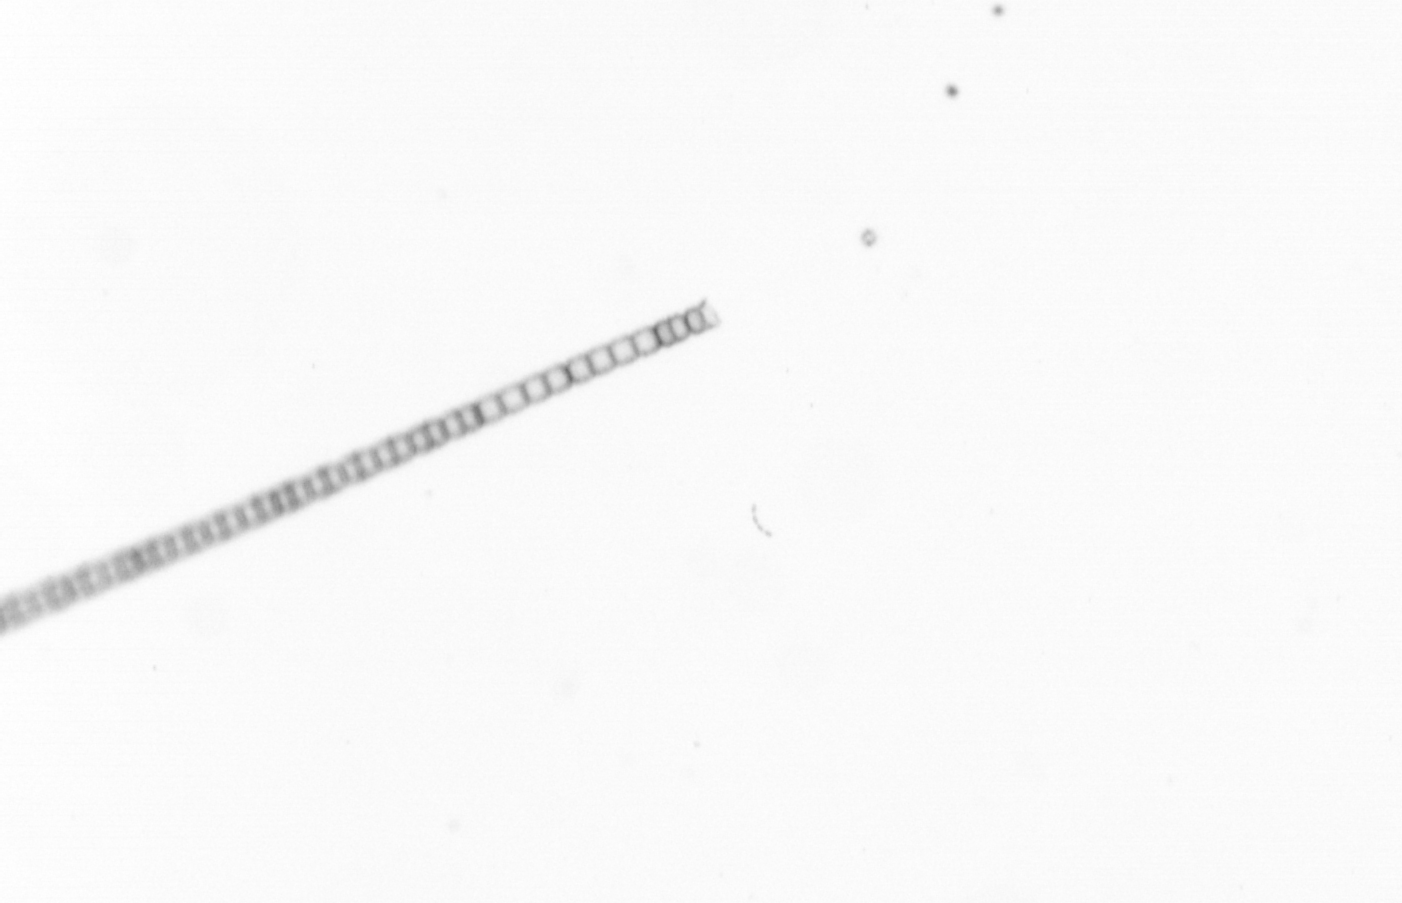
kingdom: Chromista
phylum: Ochrophyta
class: Bacillariophyceae
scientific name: Bacillariophyceae
